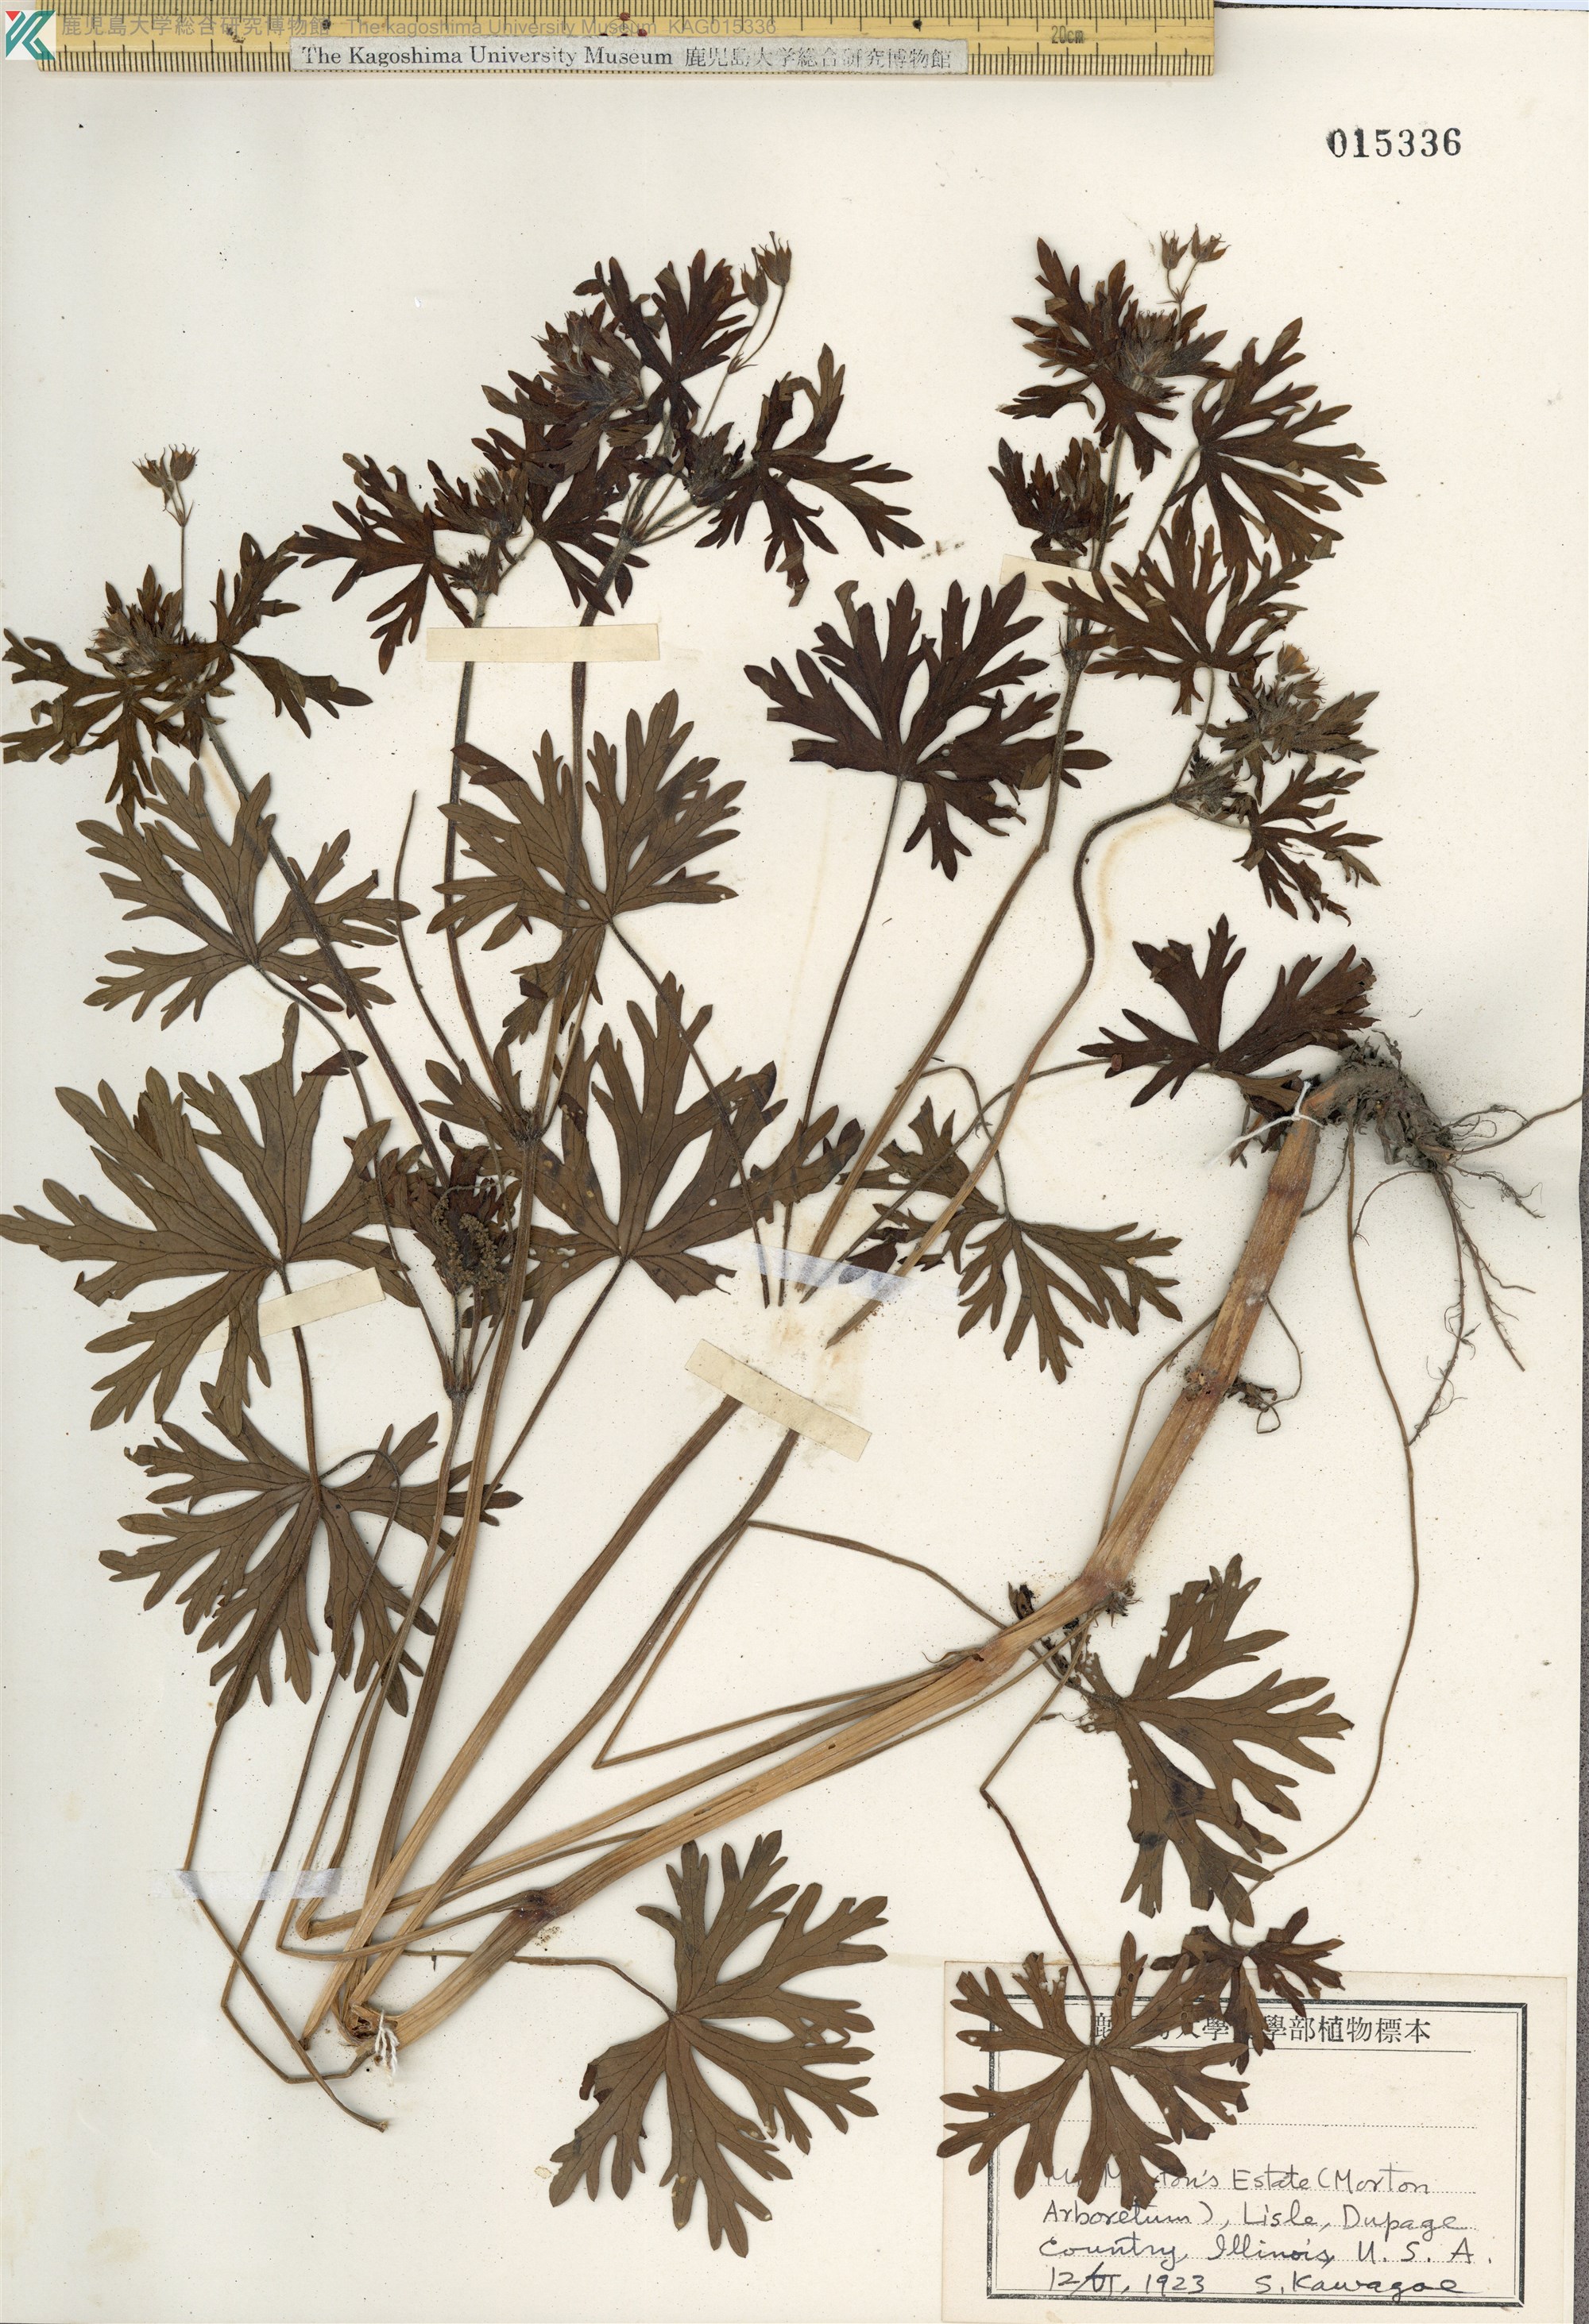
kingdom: Plantae
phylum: Tracheophyta
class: Magnoliopsida
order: Geraniales
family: Geraniaceae
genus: Geranium
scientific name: Geranium dissectum
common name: Cut-leaved crane's-bill
